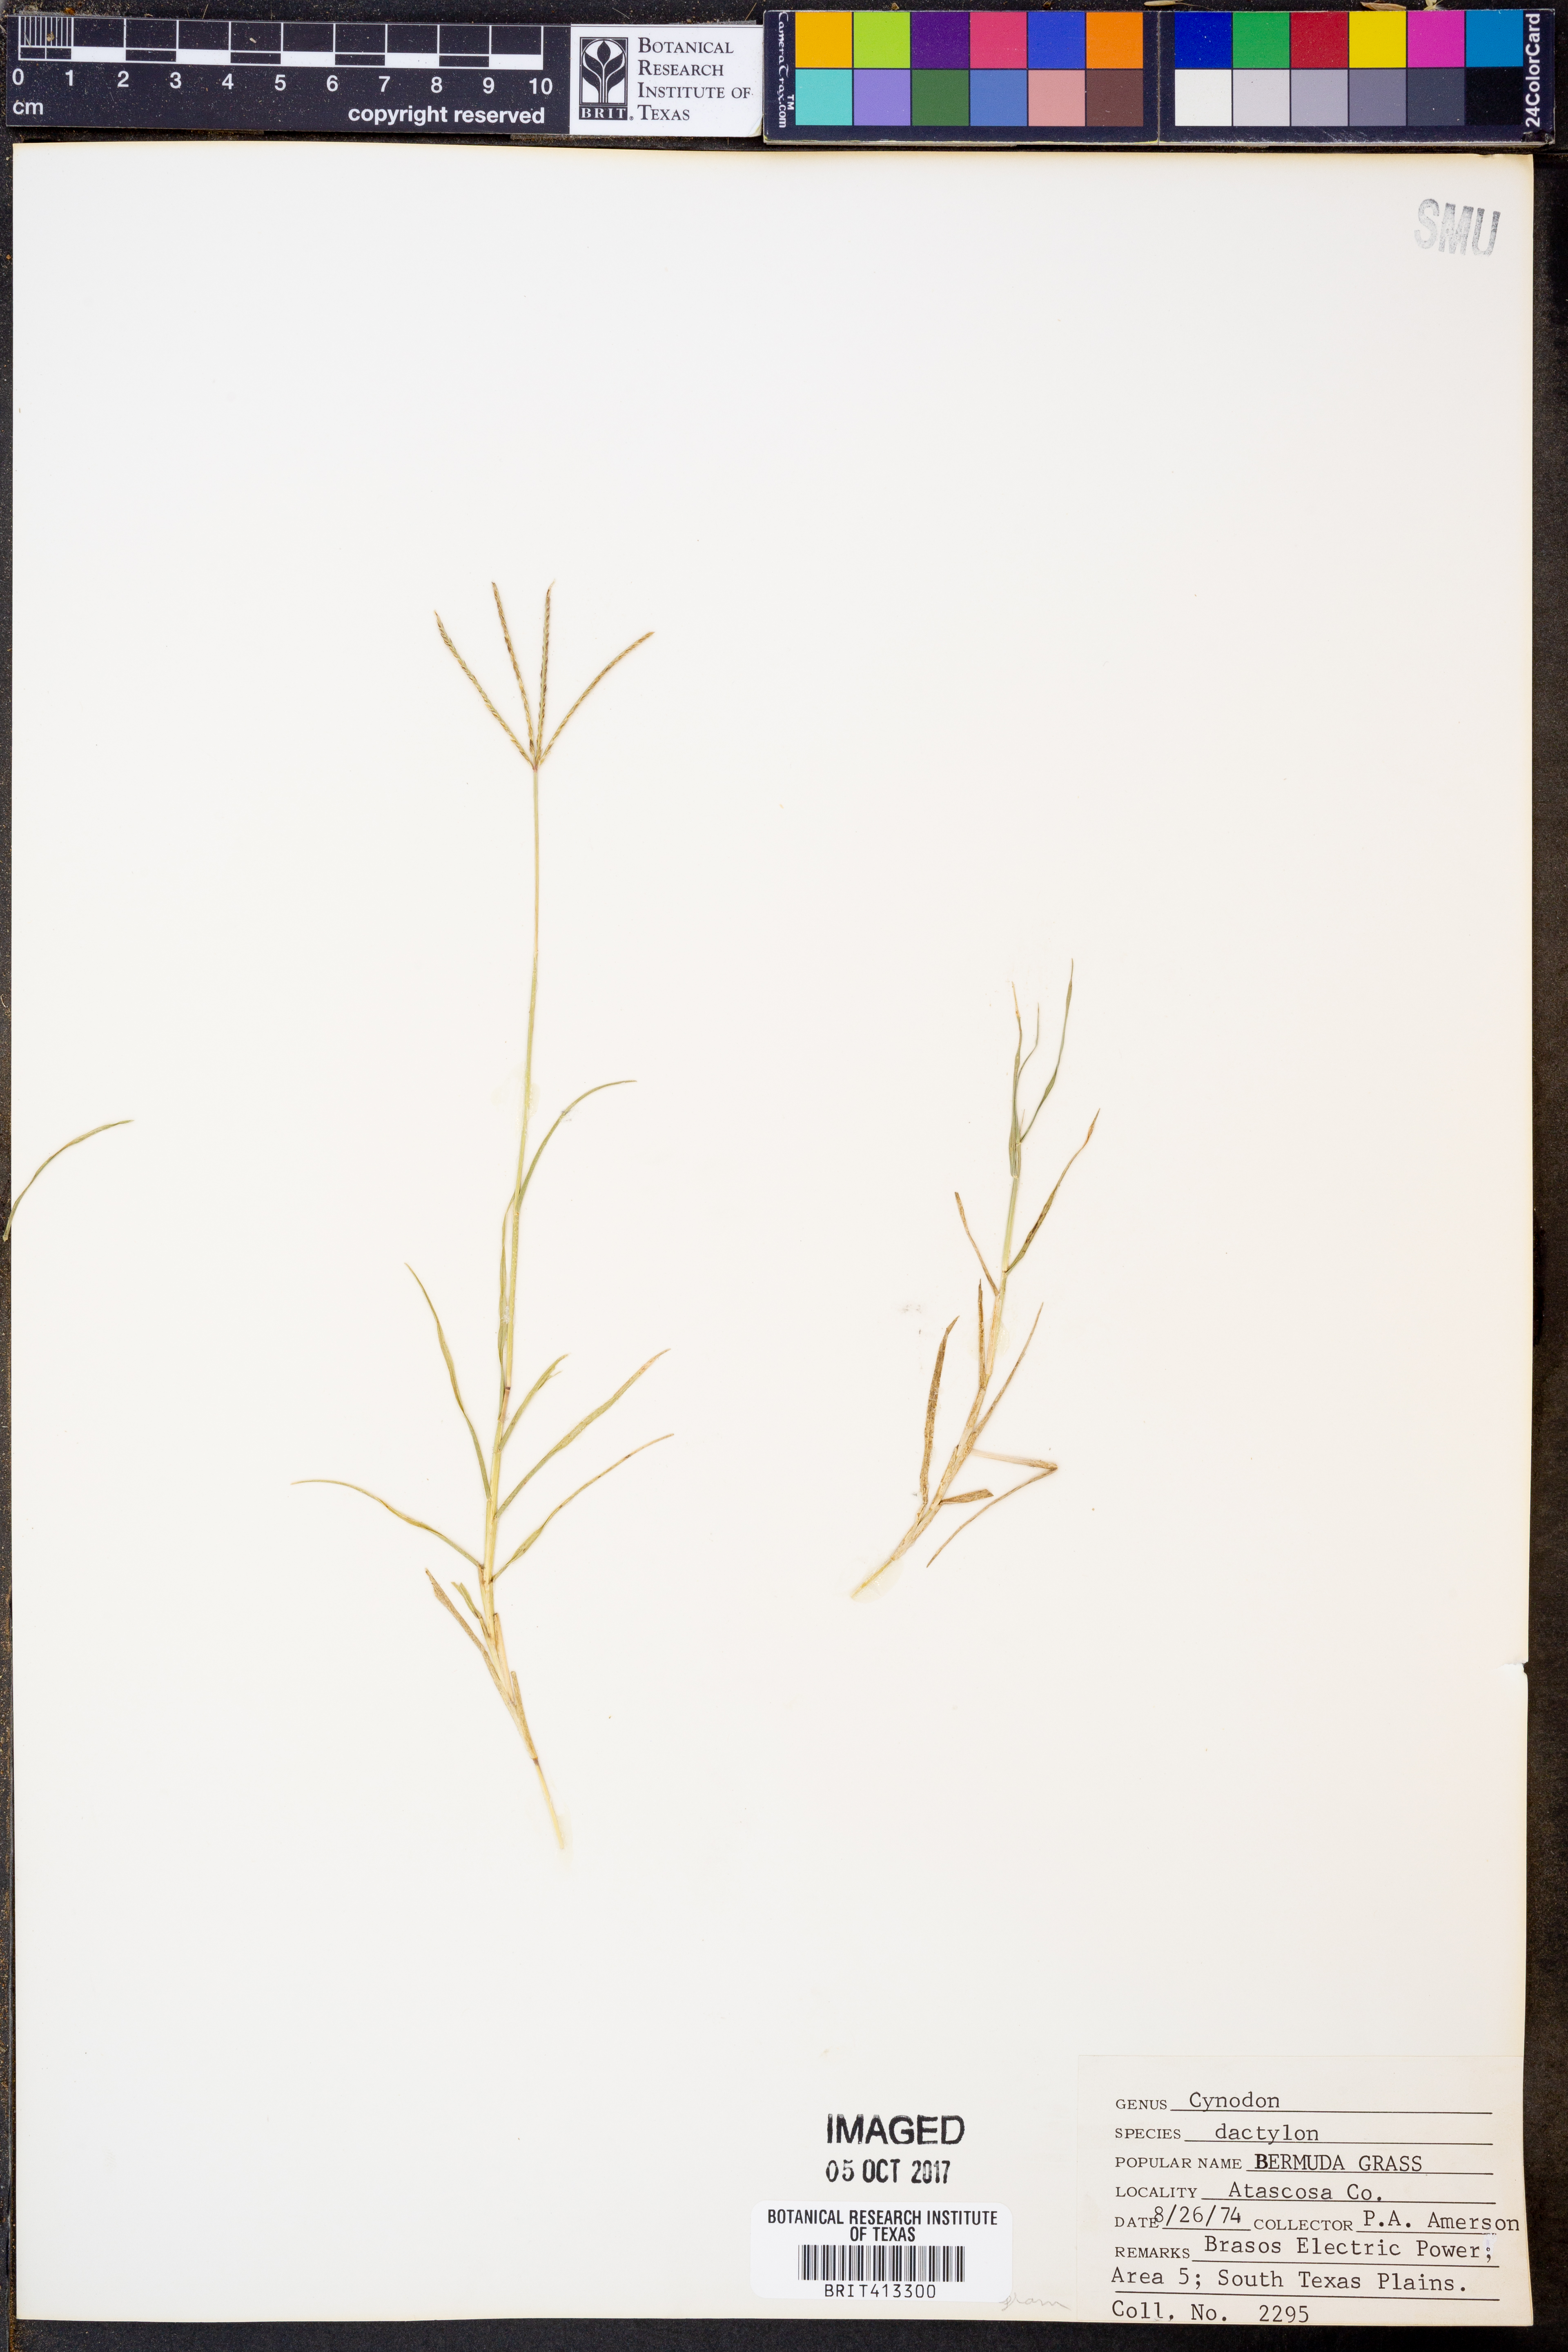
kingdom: Plantae
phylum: Tracheophyta
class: Liliopsida
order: Poales
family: Poaceae
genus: Cynodon
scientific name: Cynodon dactylon
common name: Bermuda grass
